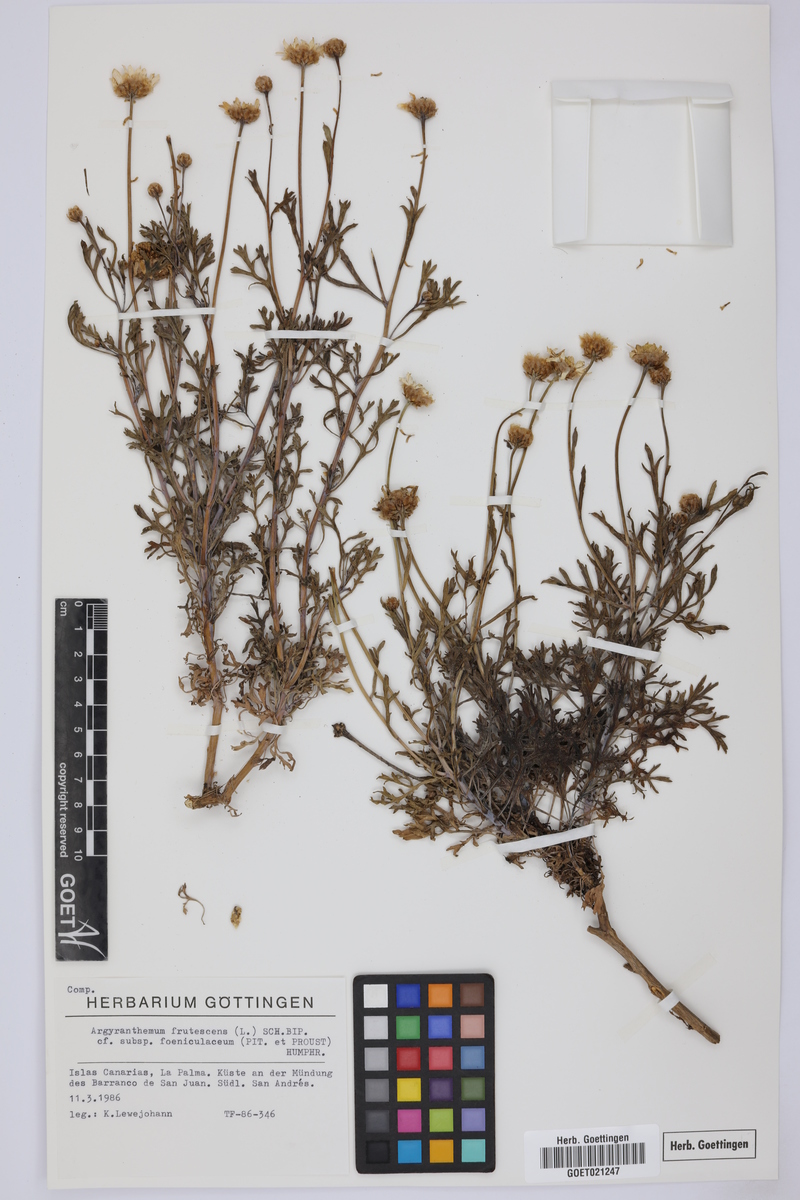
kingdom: Plantae
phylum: Tracheophyta
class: Magnoliopsida
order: Asterales
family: Asteraceae
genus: Argyranthemum
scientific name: Argyranthemum frutescens
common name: Paris daisy
